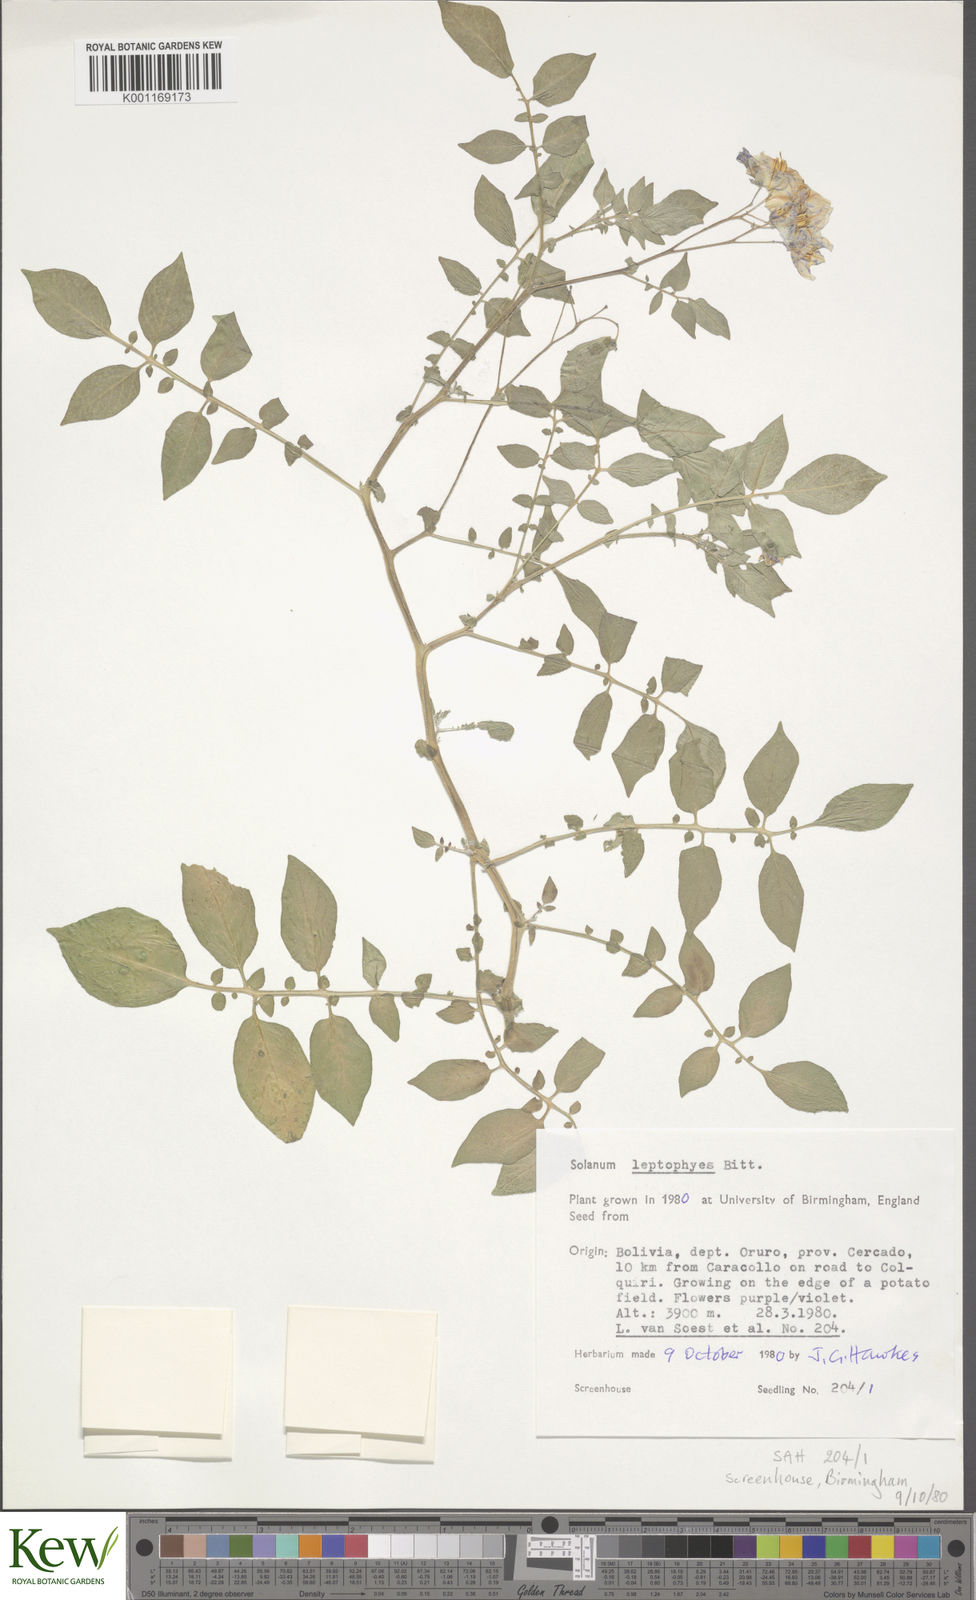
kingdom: Plantae
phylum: Tracheophyta
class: Magnoliopsida
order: Solanales
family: Solanaceae
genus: Solanum
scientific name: Solanum brevicaule
